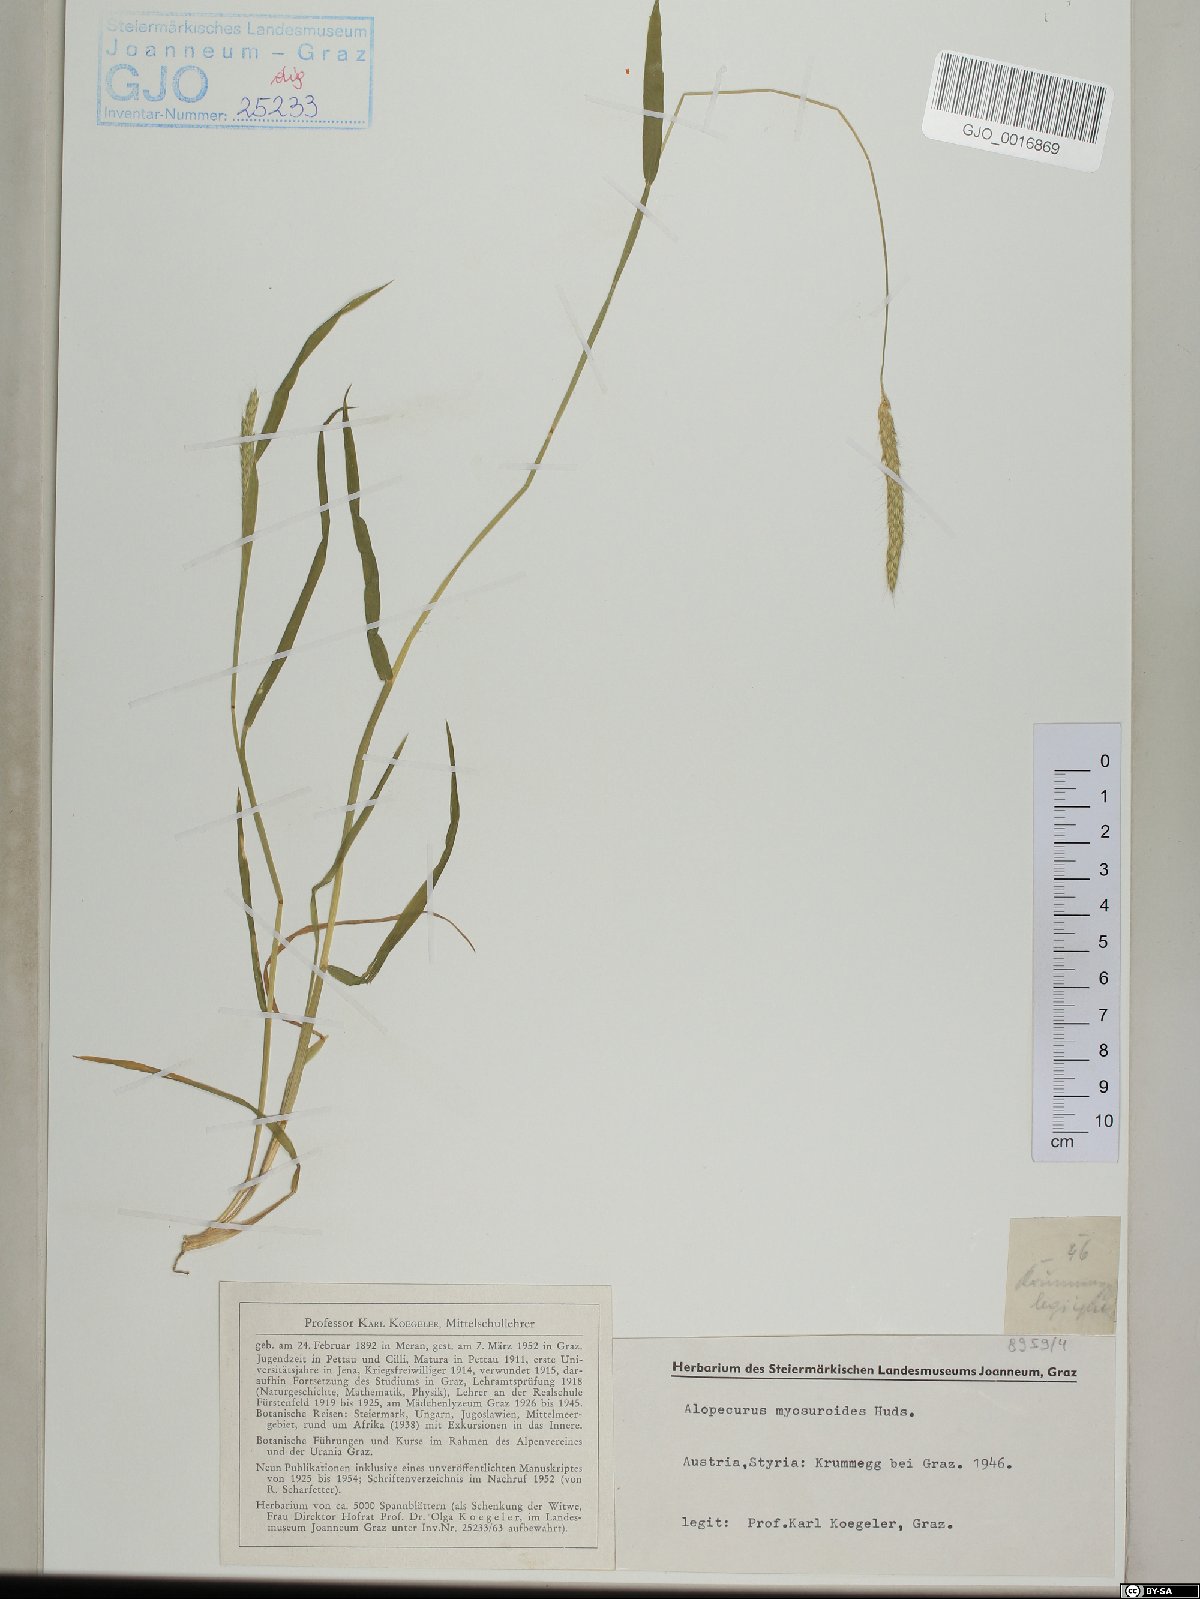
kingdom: Plantae
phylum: Tracheophyta
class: Liliopsida
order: Poales
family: Poaceae
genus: Alopecurus
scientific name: Alopecurus myosuroides
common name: Black-grass
